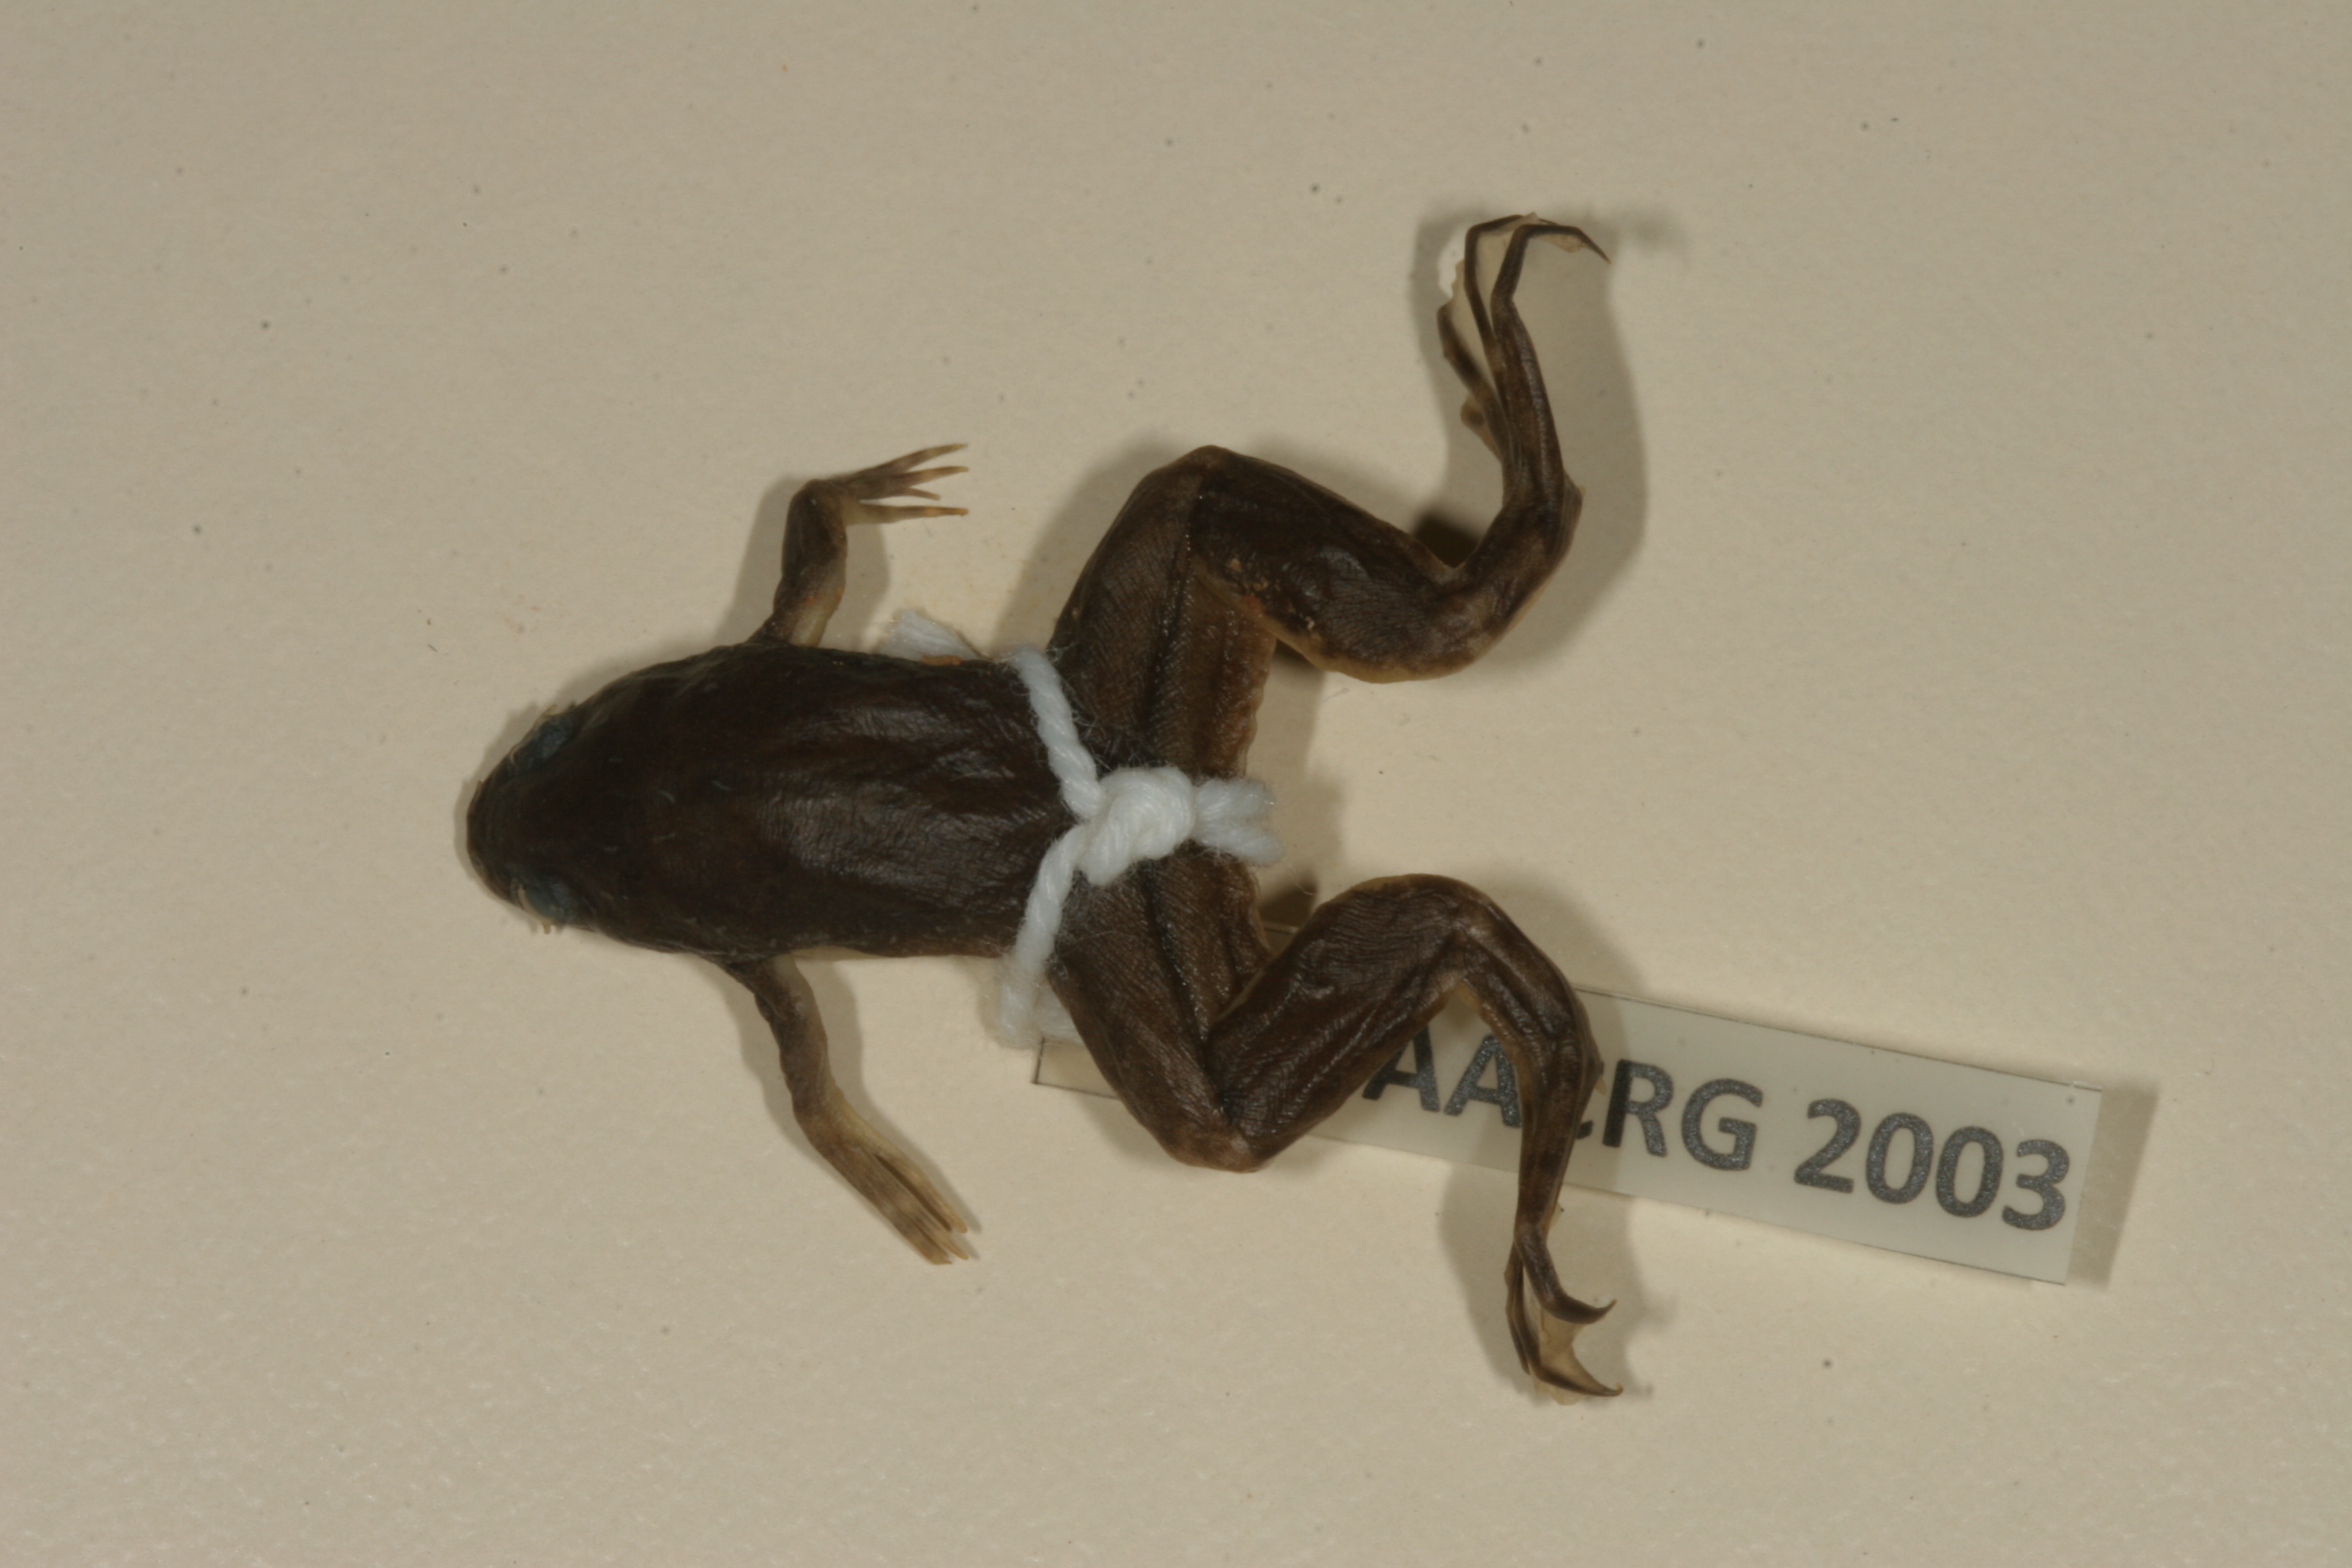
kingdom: Animalia
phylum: Chordata
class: Amphibia
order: Anura
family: Pipidae
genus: Xenopus
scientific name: Xenopus muelleri
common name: Muller's clawed frog
